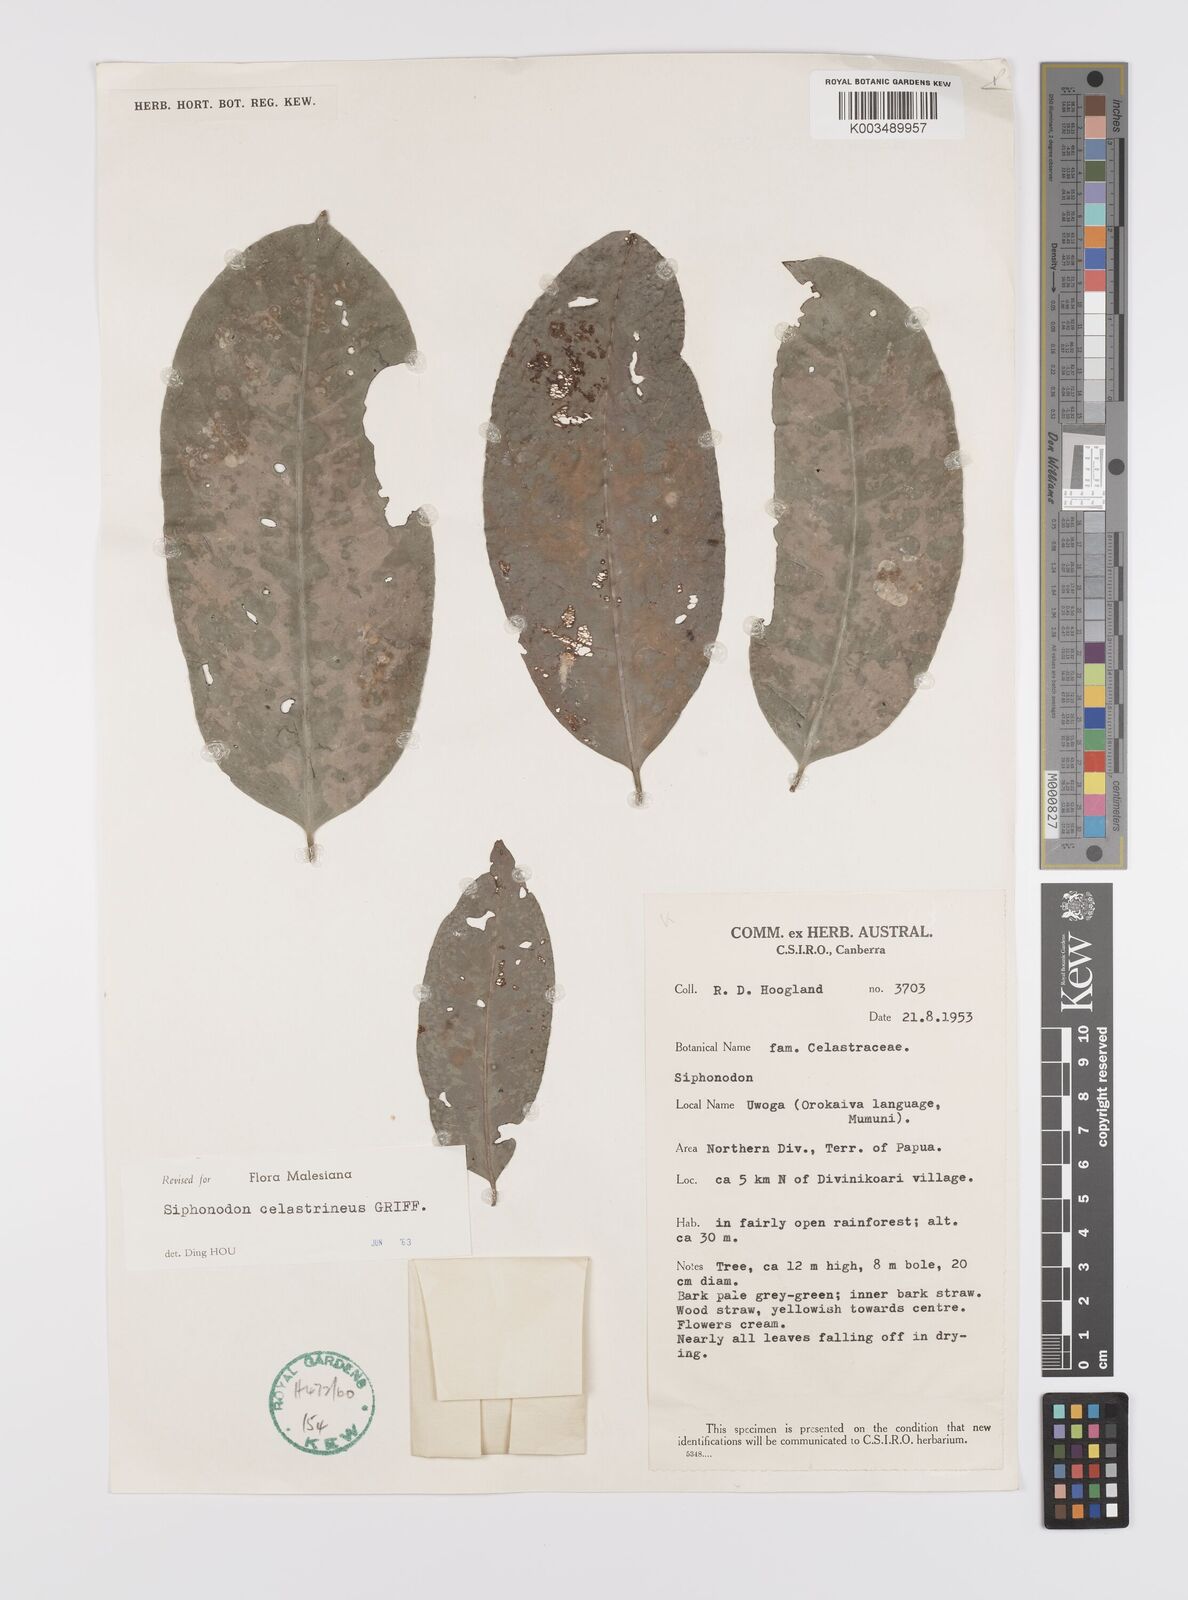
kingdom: Plantae
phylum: Tracheophyta
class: Magnoliopsida
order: Celastrales
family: Celastraceae
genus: Siphonodon
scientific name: Siphonodon celastrineus
